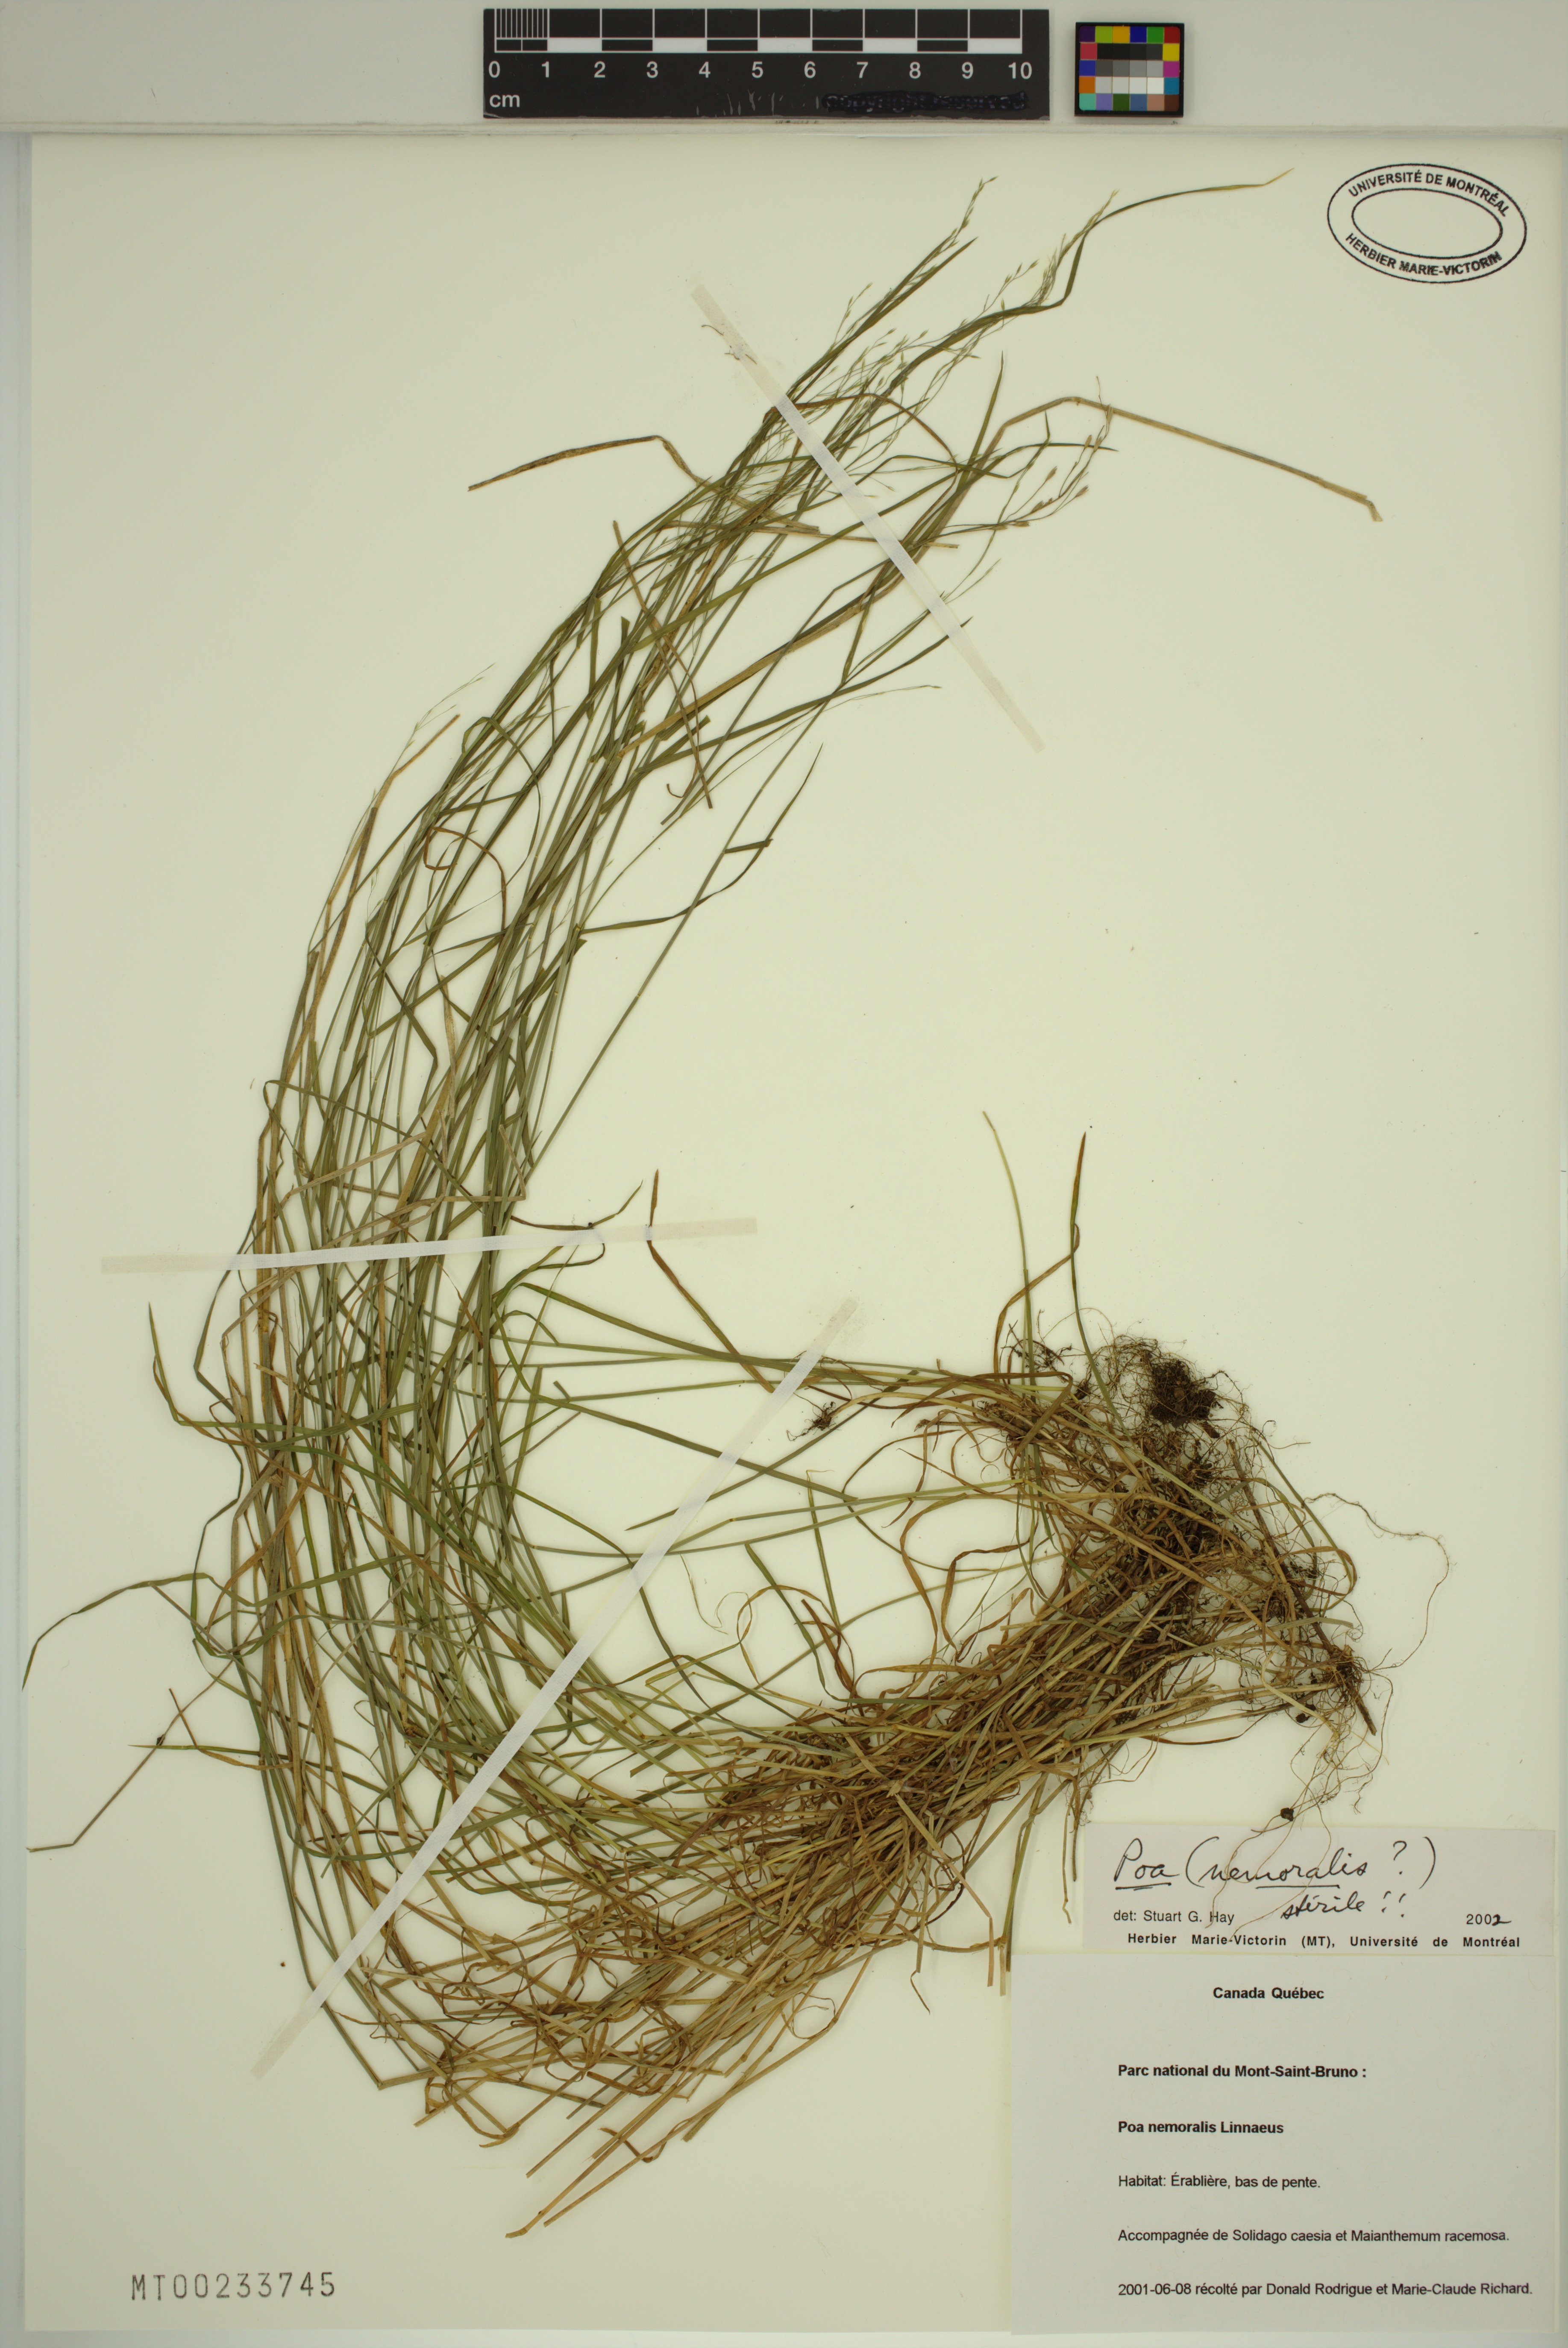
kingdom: Plantae
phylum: Tracheophyta
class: Liliopsida
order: Poales
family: Poaceae
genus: Poa
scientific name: Poa nemoralis
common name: Wood bluegrass
